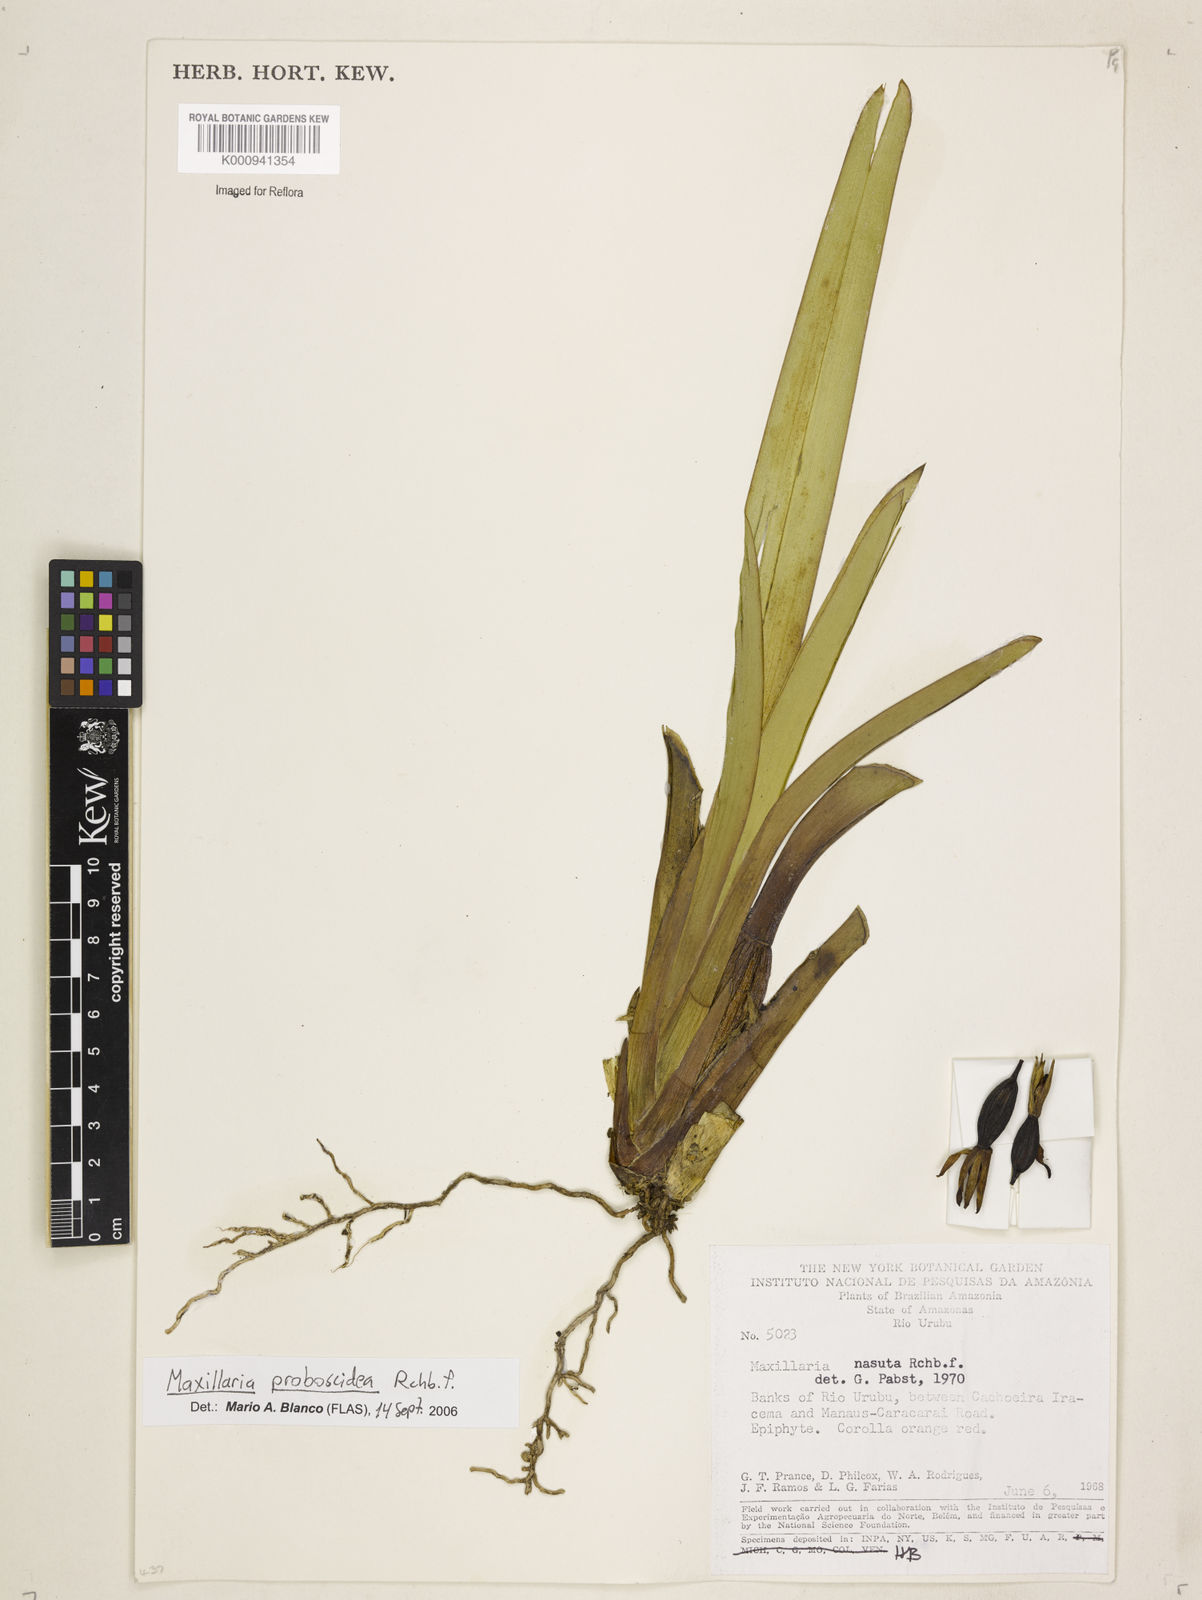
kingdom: Plantae
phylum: Tracheophyta
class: Liliopsida
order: Asparagales
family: Orchidaceae
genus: Maxillaria
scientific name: Maxillaria proboscidea
